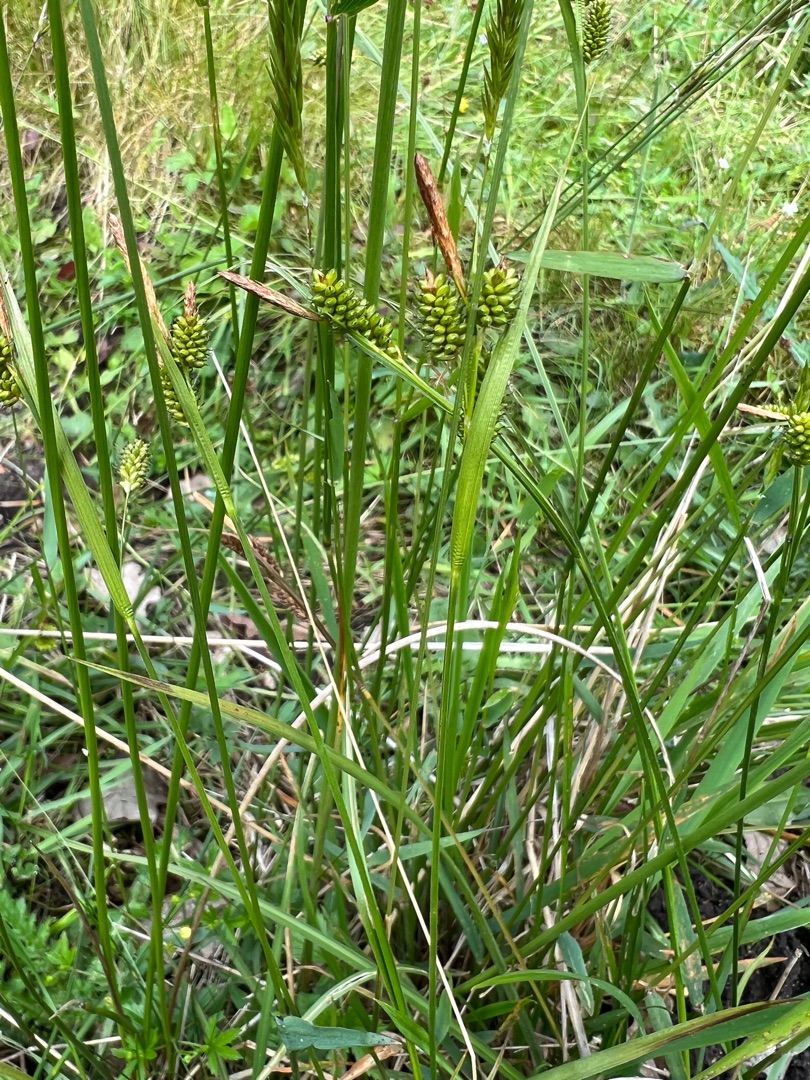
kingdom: Plantae
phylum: Tracheophyta
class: Liliopsida
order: Poales
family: Cyperaceae
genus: Carex
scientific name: Carex pallescens
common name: Bleg star
